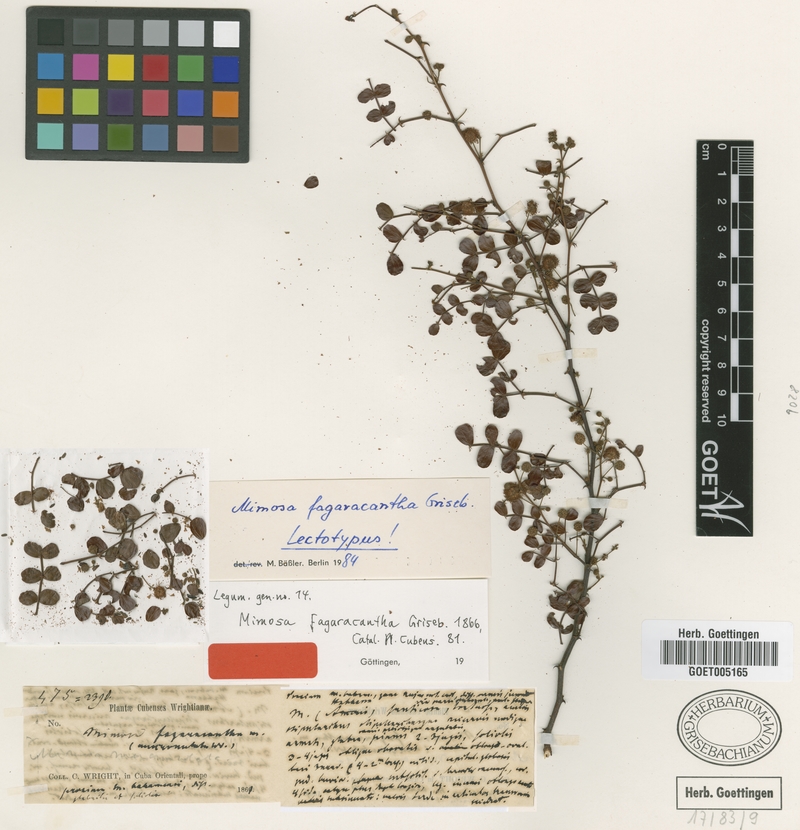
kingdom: Plantae
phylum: Tracheophyta
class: Magnoliopsida
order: Fabales
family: Fabaceae
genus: Mimosa
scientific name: Mimosa fagaracantha
